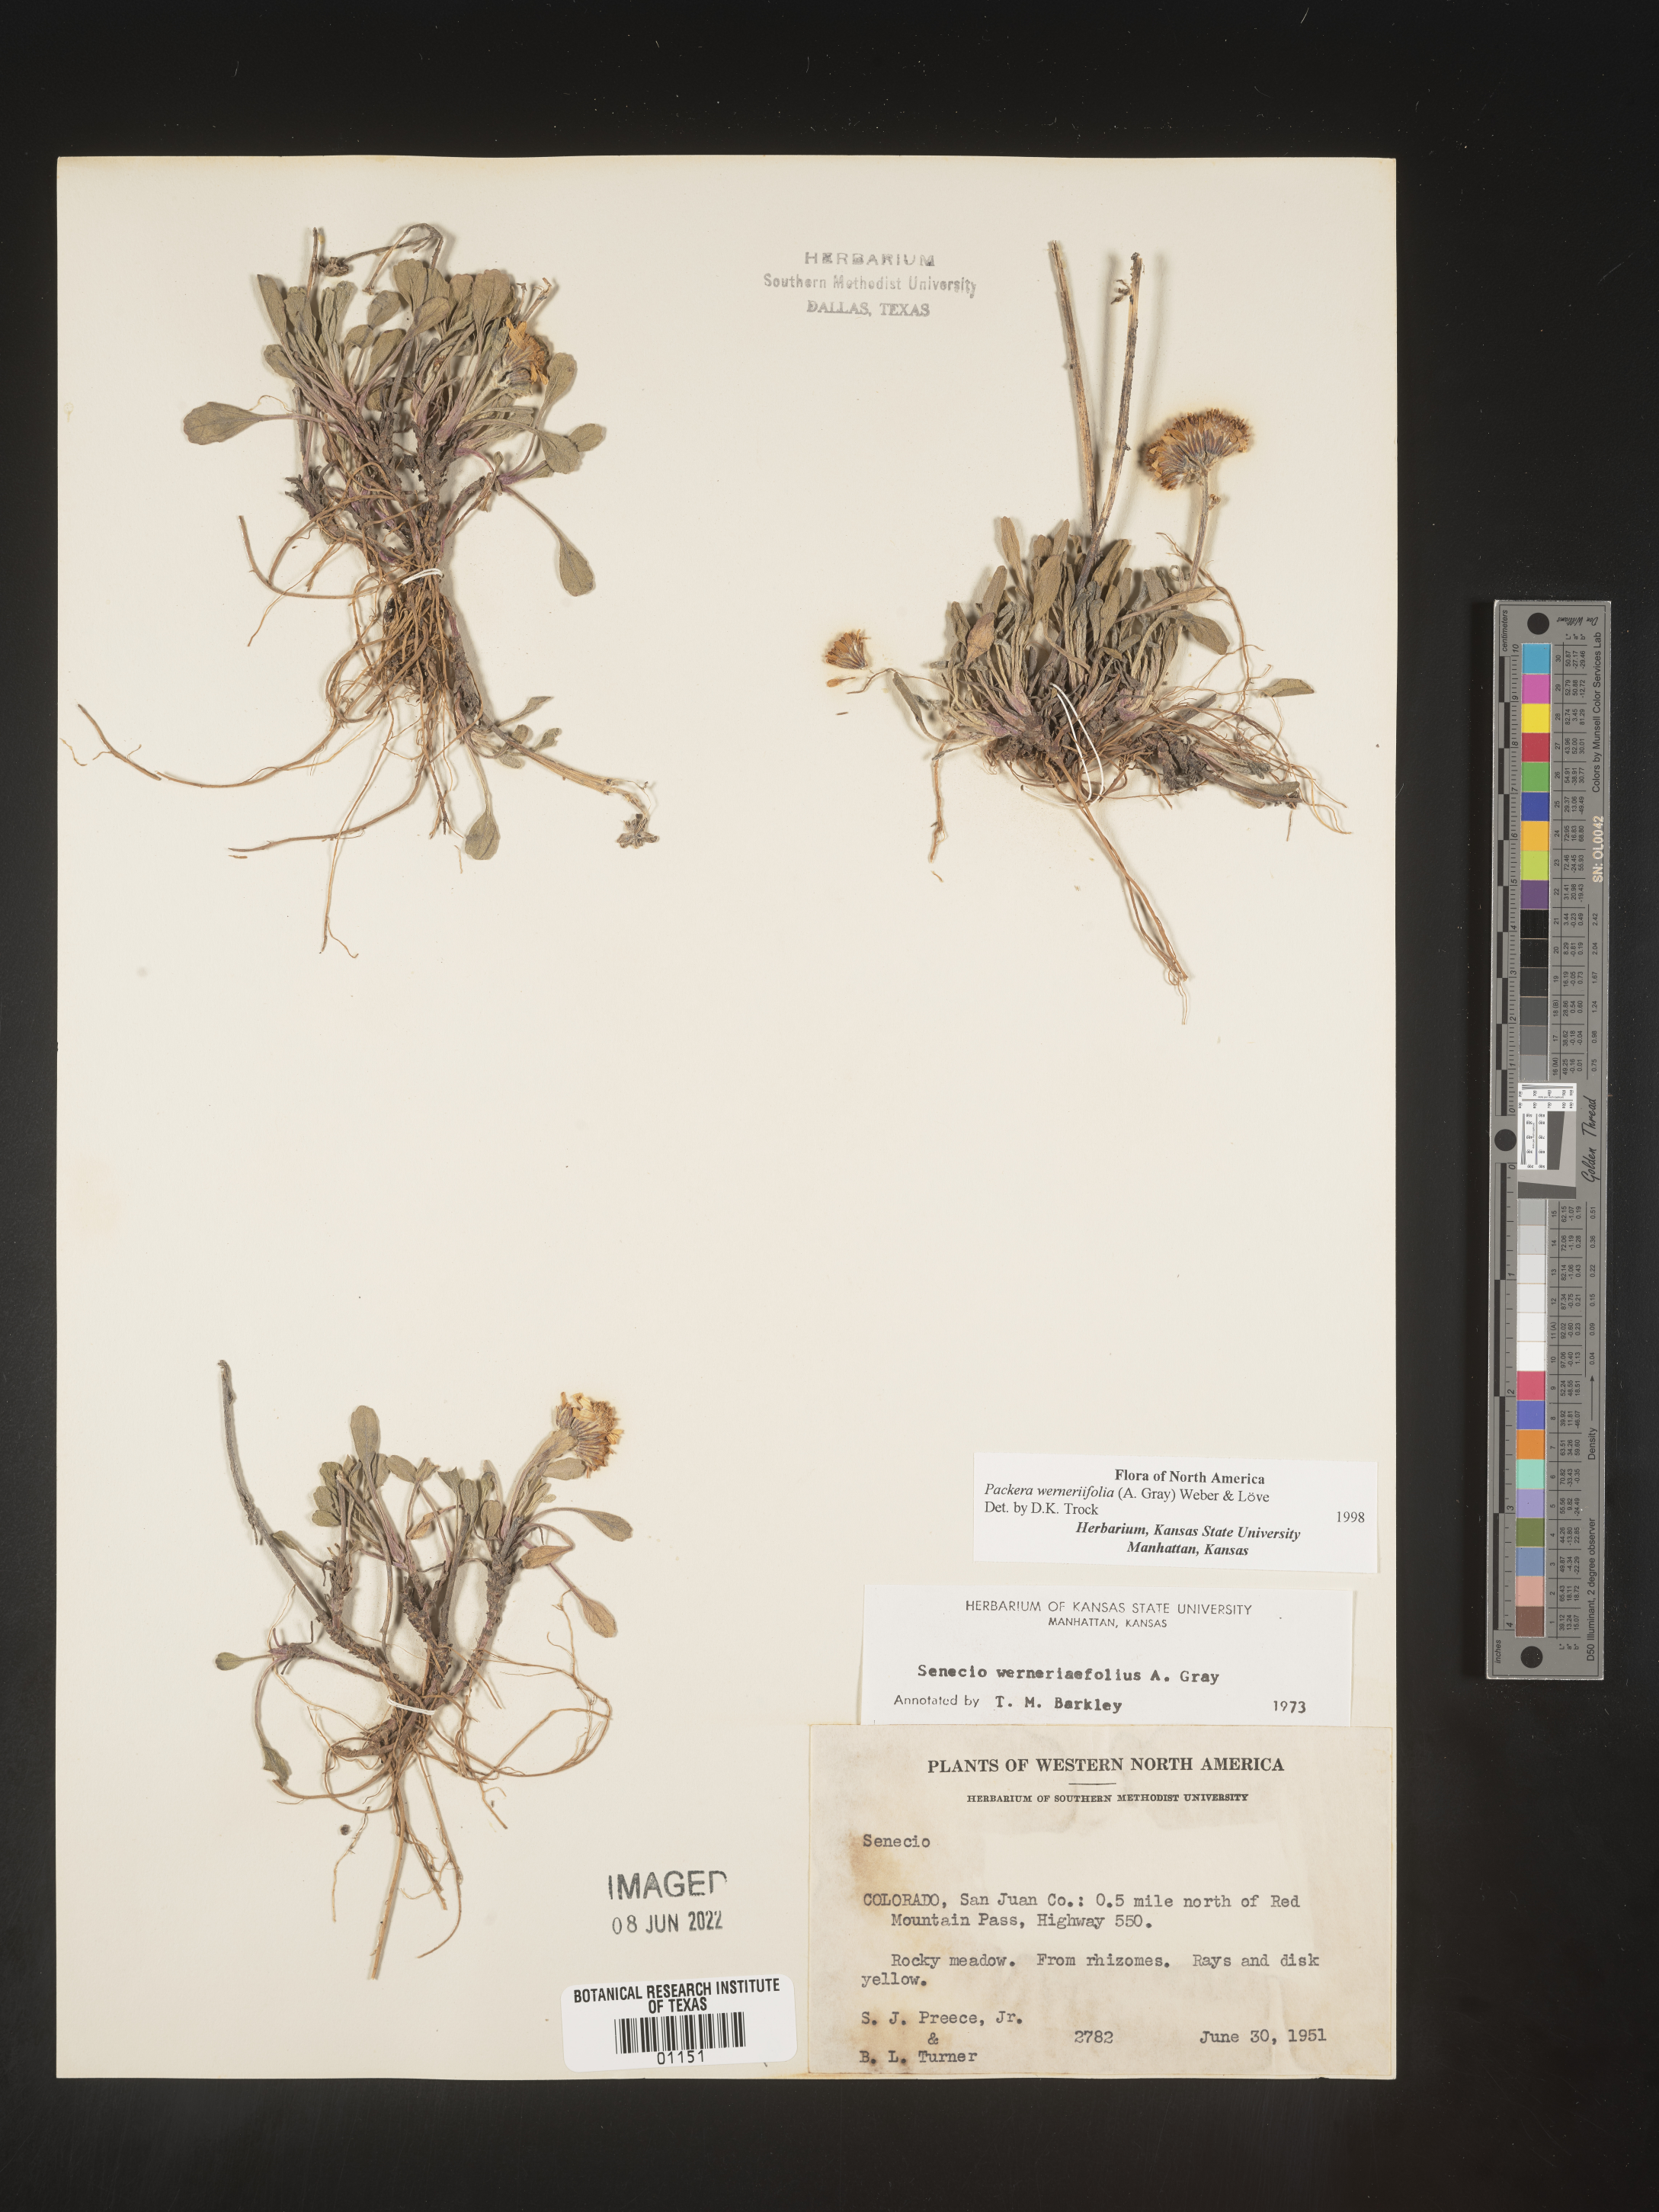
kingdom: Plantae
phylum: Tracheophyta
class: Magnoliopsida
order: Asterales
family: Asteraceae
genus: Packera
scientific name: Packera werneriifolia
